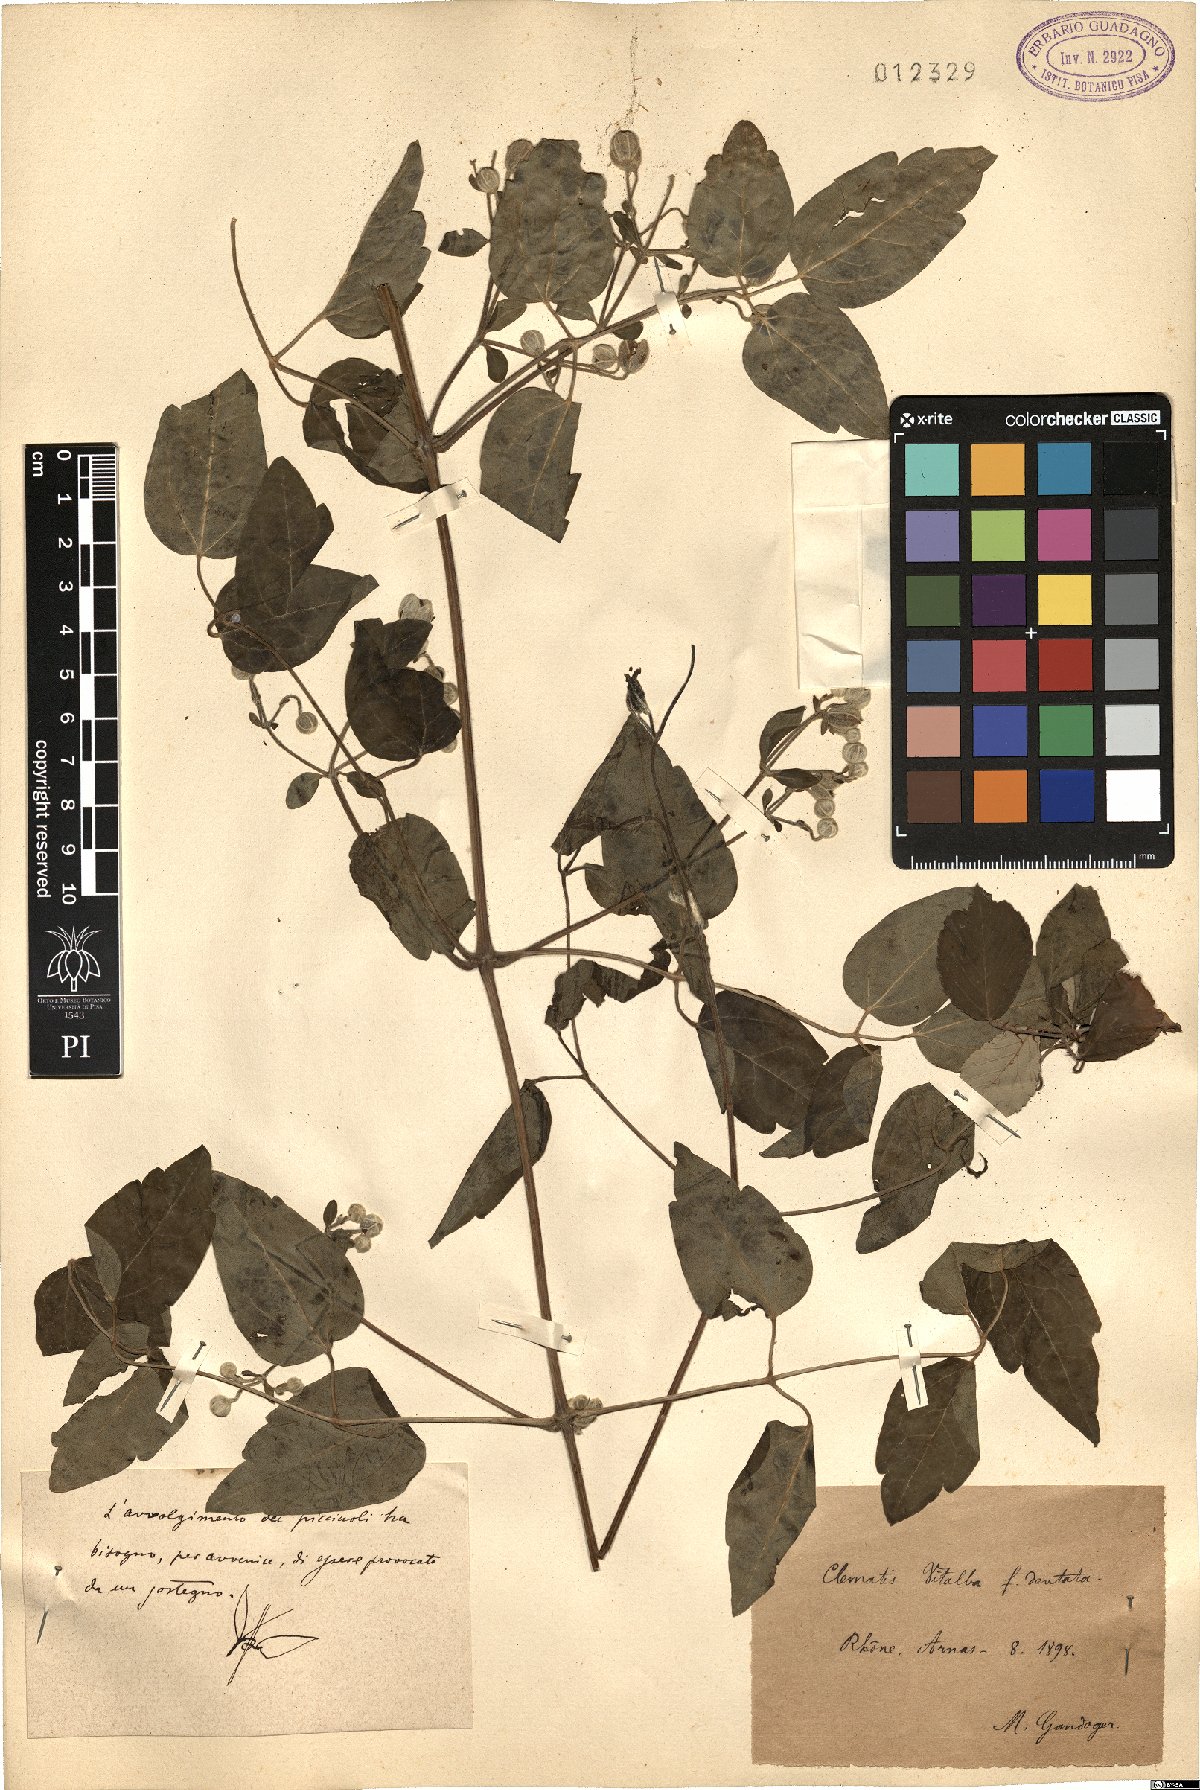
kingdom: Plantae
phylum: Tracheophyta
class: Magnoliopsida
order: Ranunculales
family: Ranunculaceae
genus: Clematis
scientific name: Clematis vitalba
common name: Evergreen clematis
